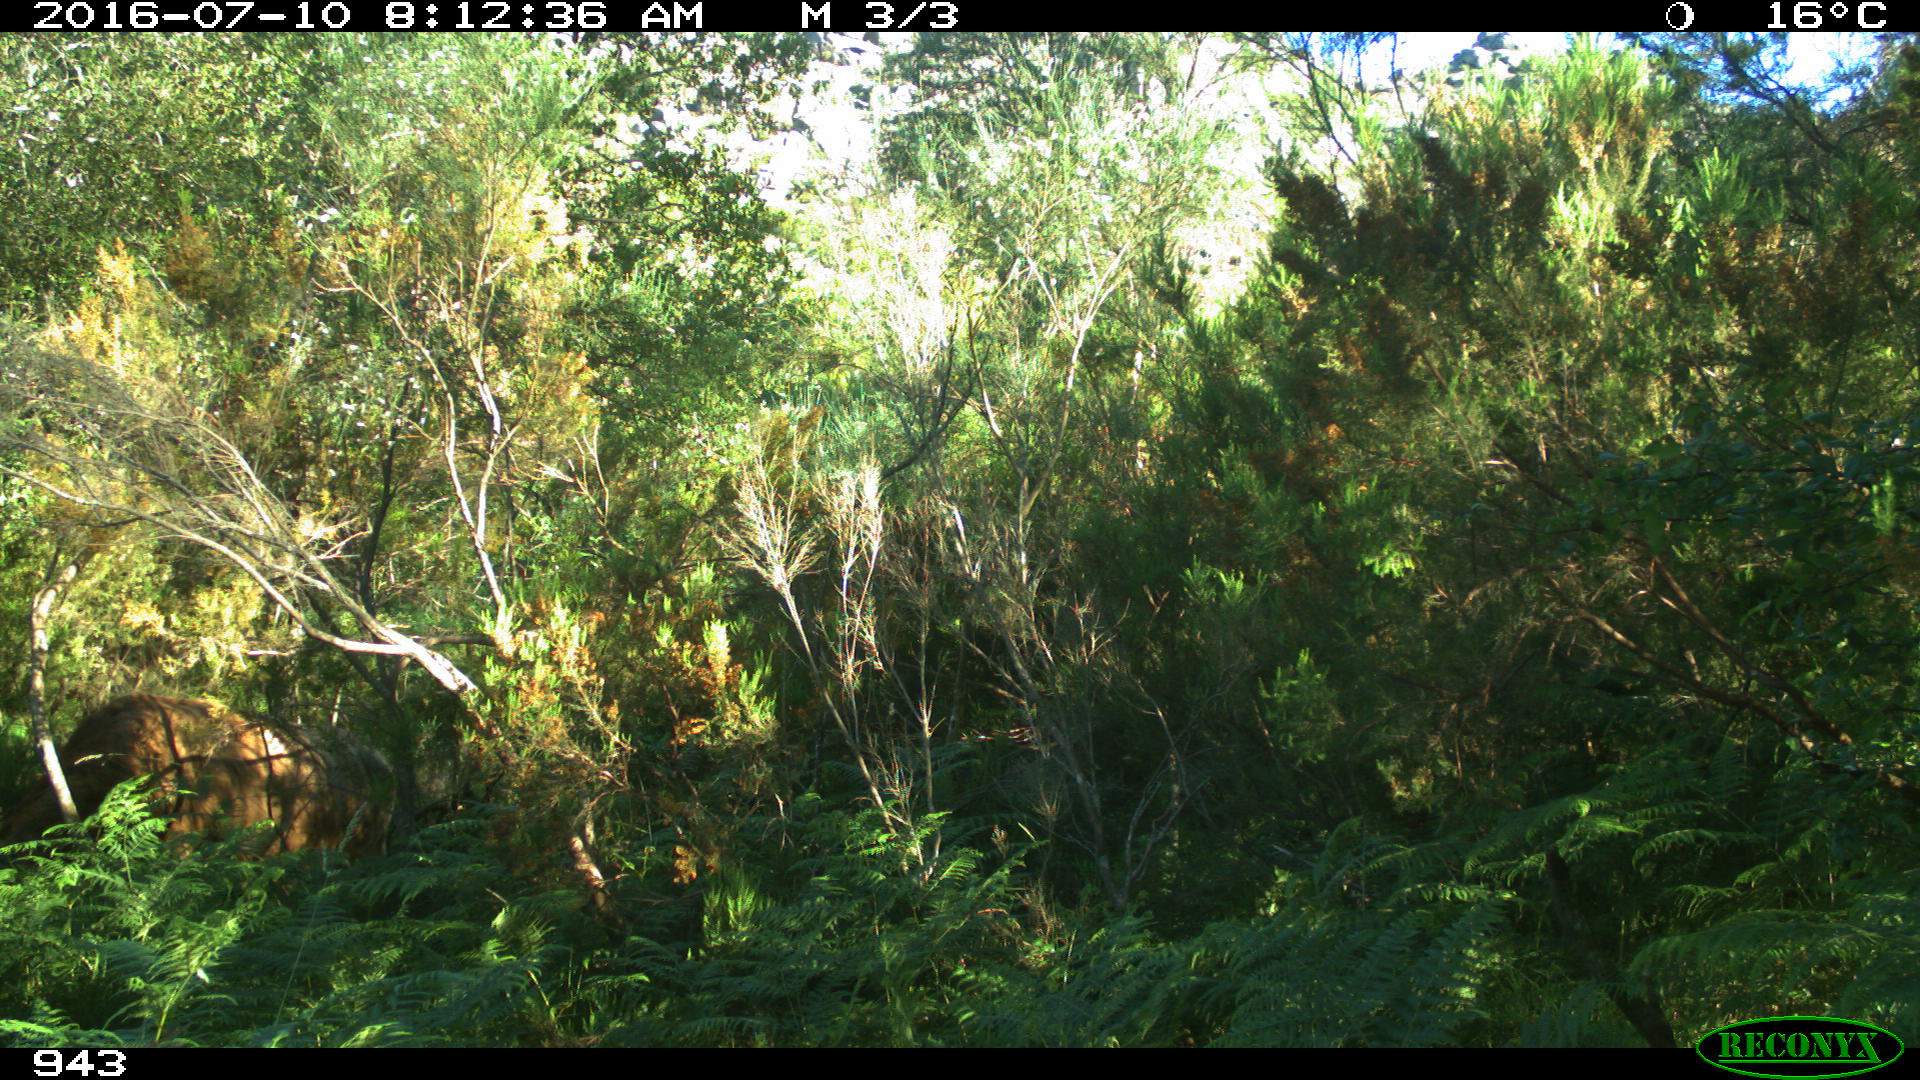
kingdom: Animalia
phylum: Chordata
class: Mammalia
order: Artiodactyla
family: Bovidae
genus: Bos
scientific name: Bos taurus
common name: Domesticated cattle
